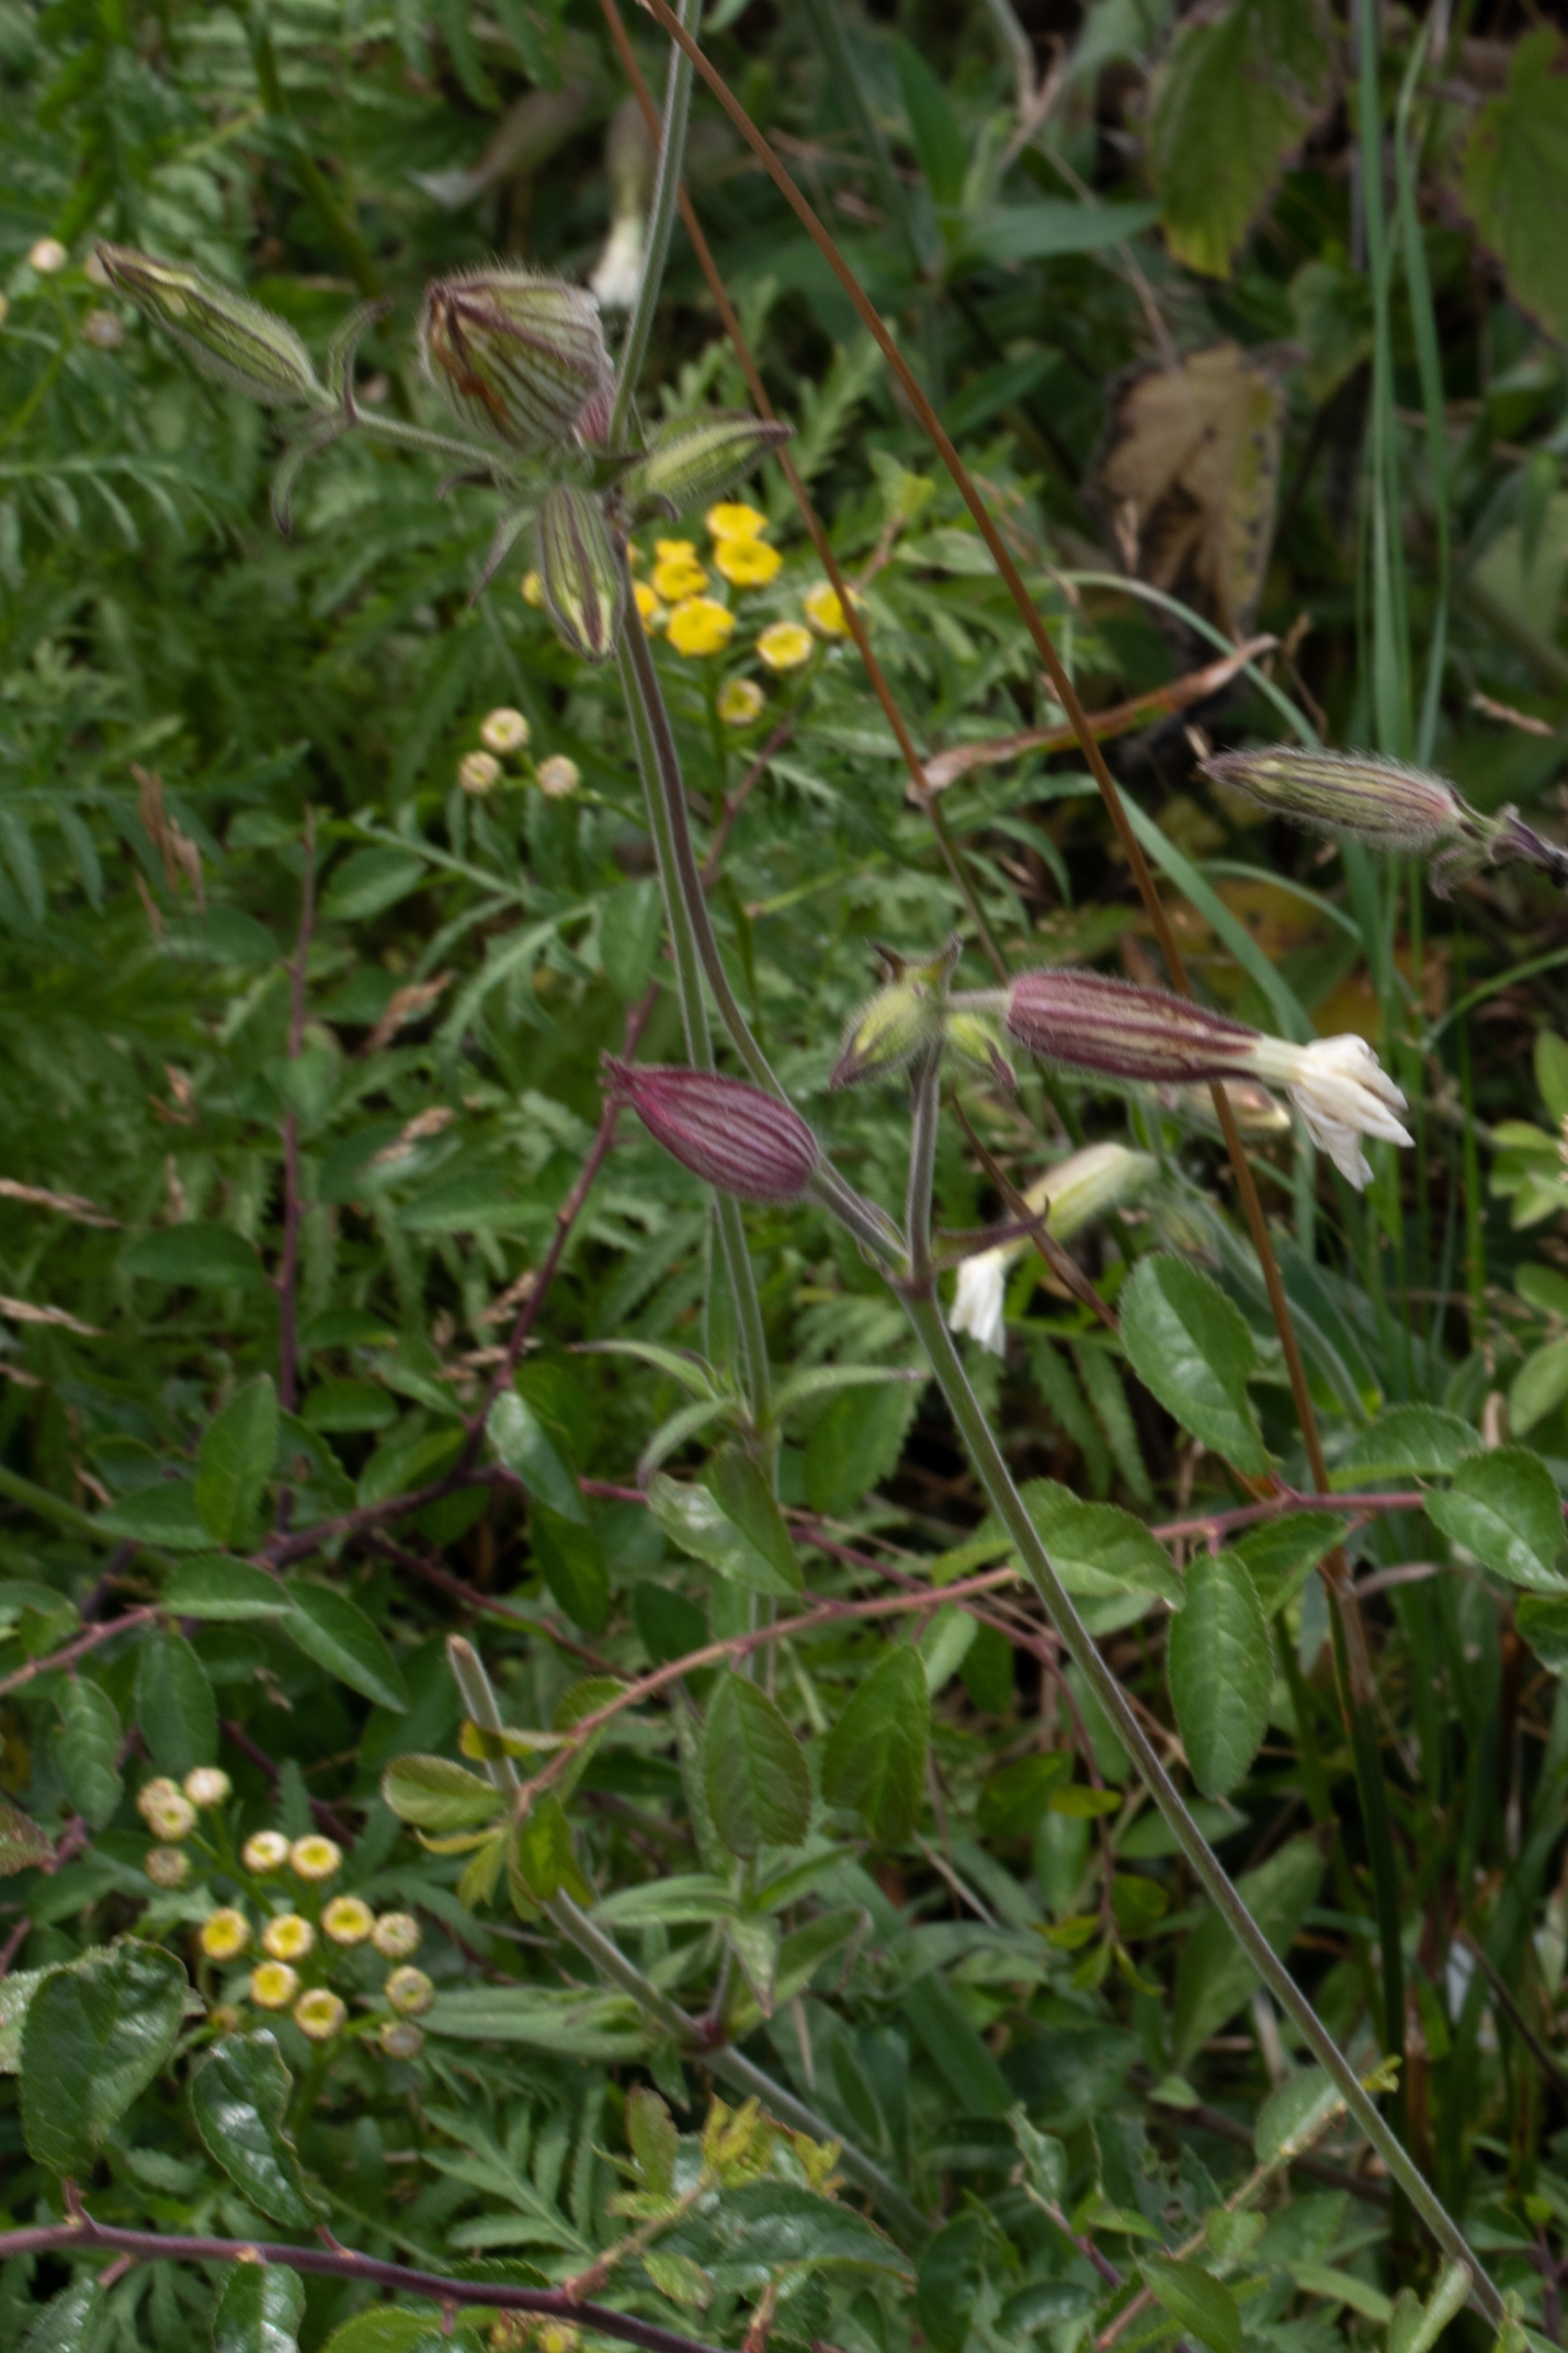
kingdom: Plantae
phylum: Tracheophyta
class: Magnoliopsida
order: Caryophyllales
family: Caryophyllaceae
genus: Silene
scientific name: Silene latifolia
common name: Aftenpragtstjerne
